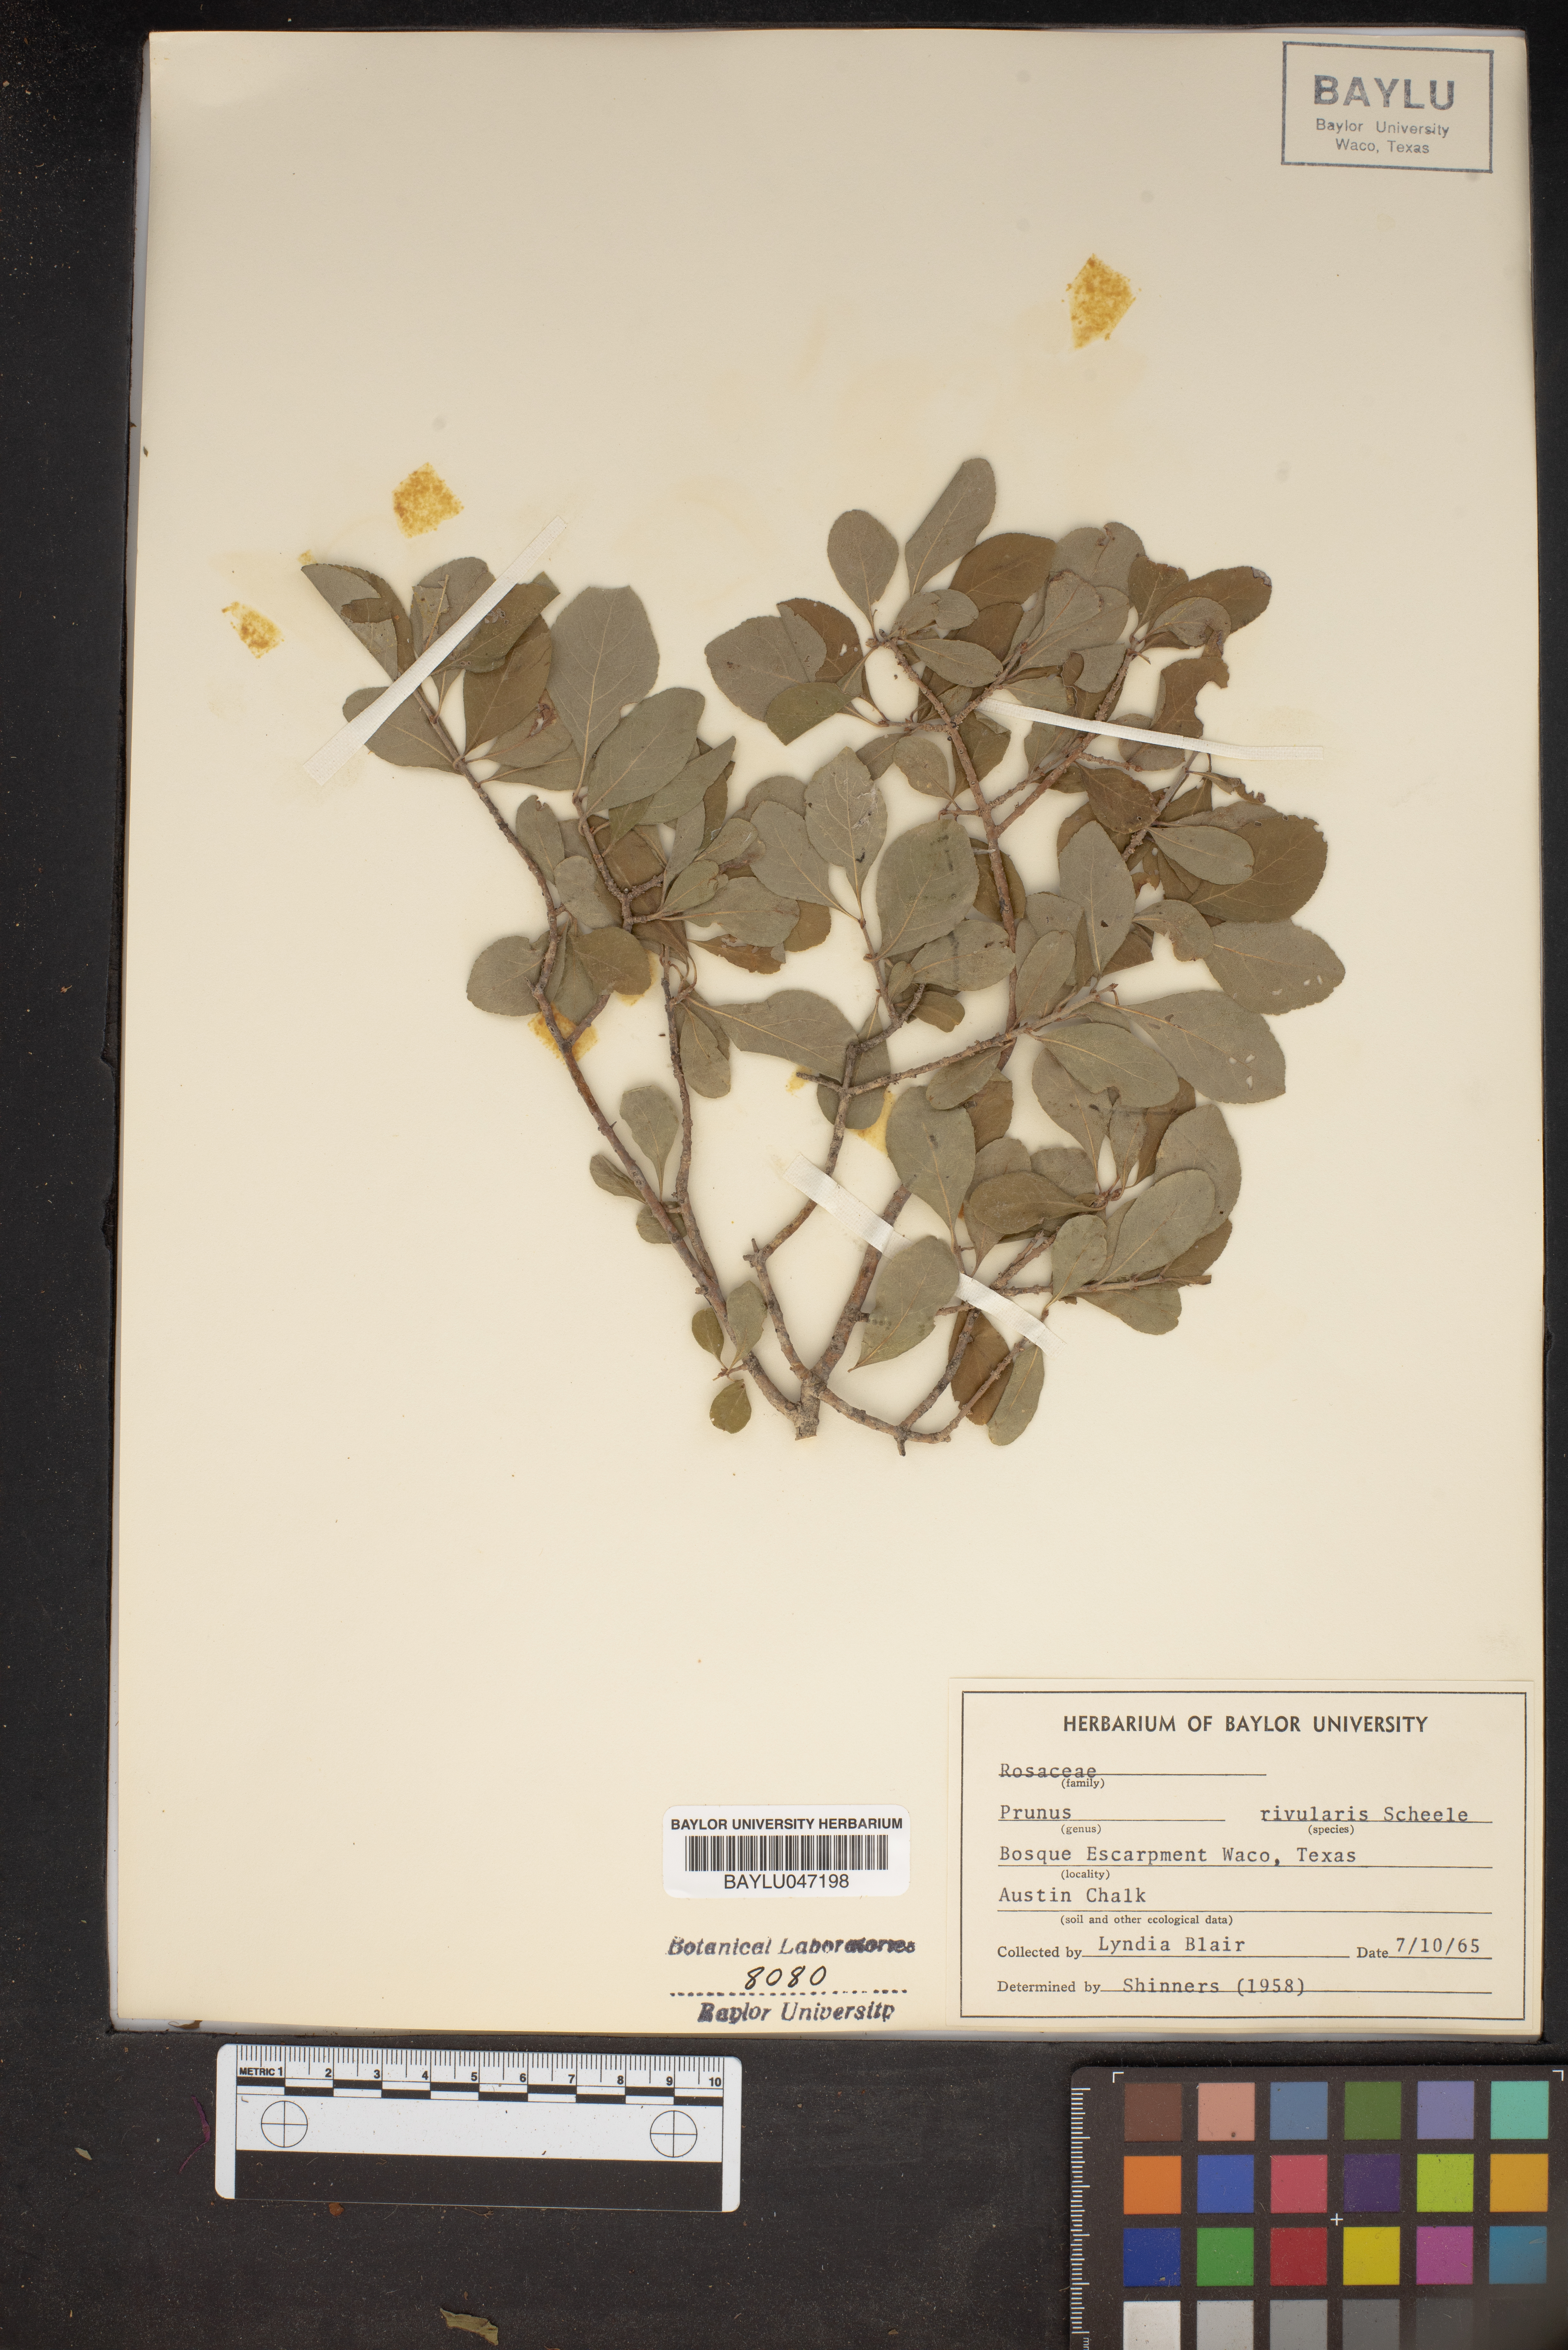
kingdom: Plantae
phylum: Tracheophyta
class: Magnoliopsida
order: Rosales
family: Rosaceae
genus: Prunus
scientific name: Prunus rivularis
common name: Creek plum
